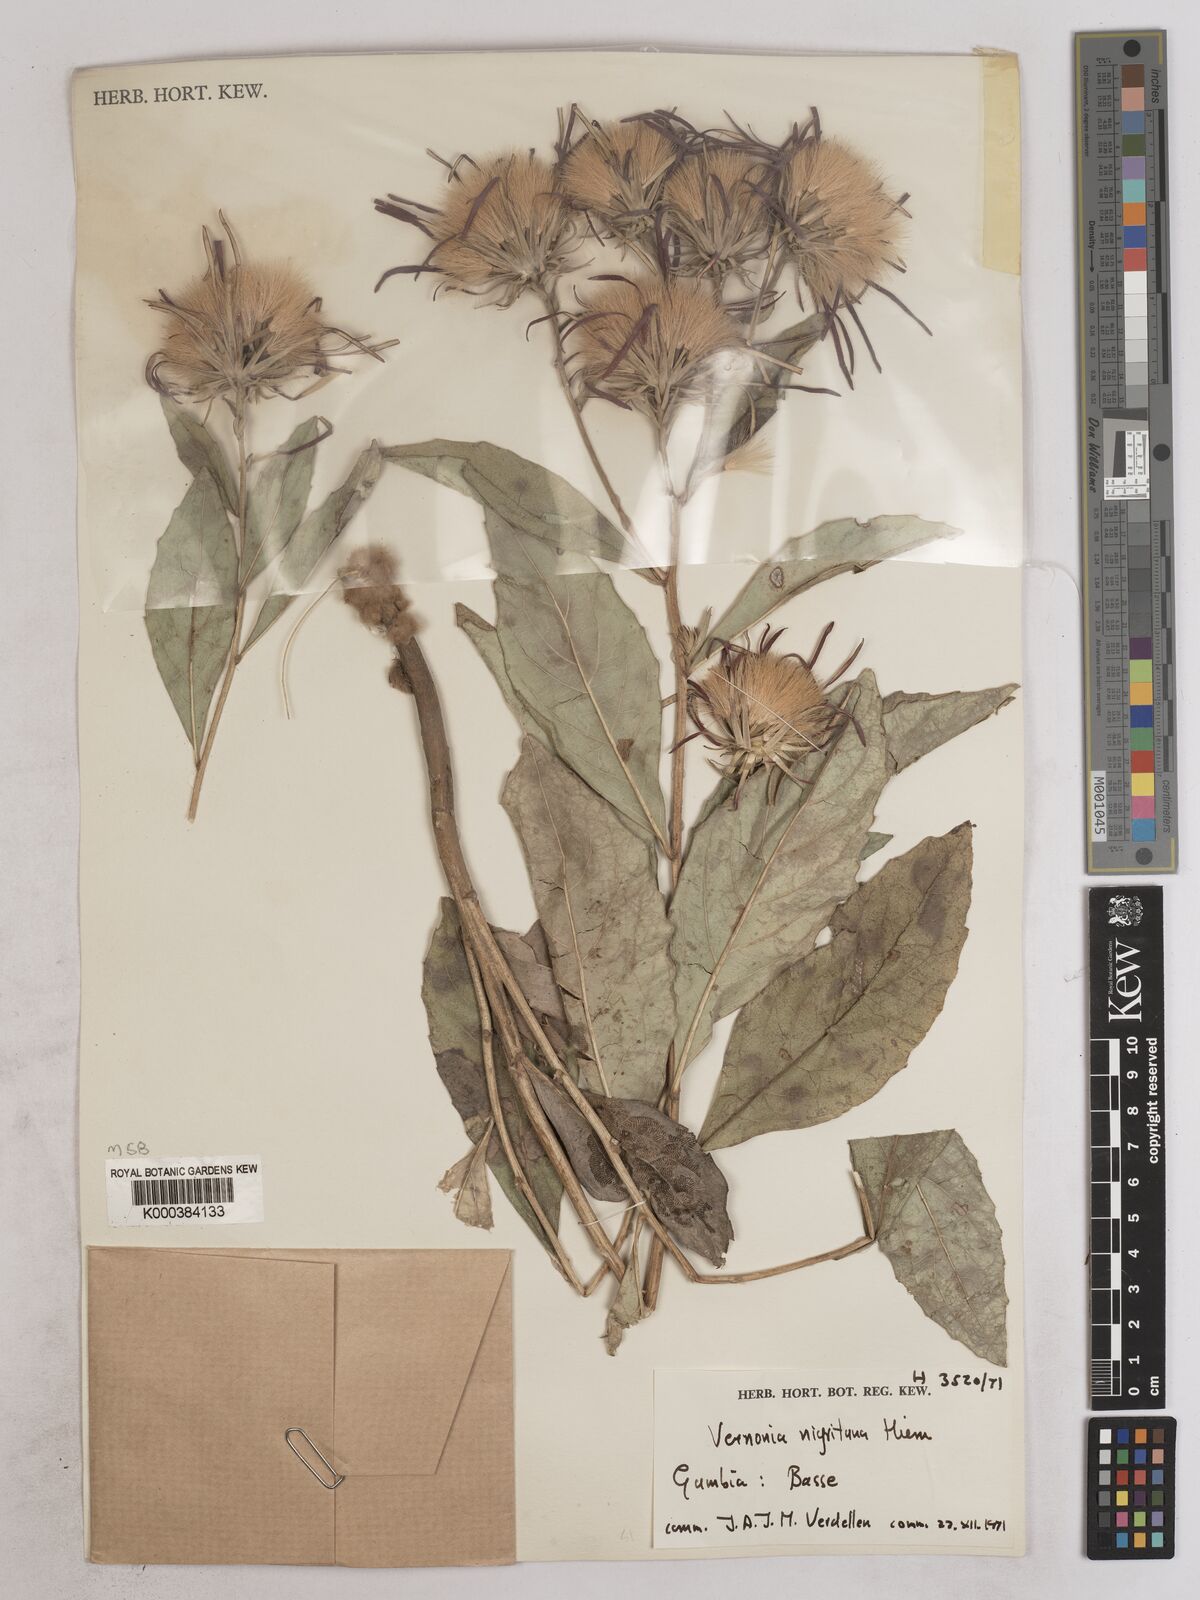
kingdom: Plantae
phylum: Tracheophyta
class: Magnoliopsida
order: Asterales
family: Asteraceae
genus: Linzia
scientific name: Linzia nigritiana
